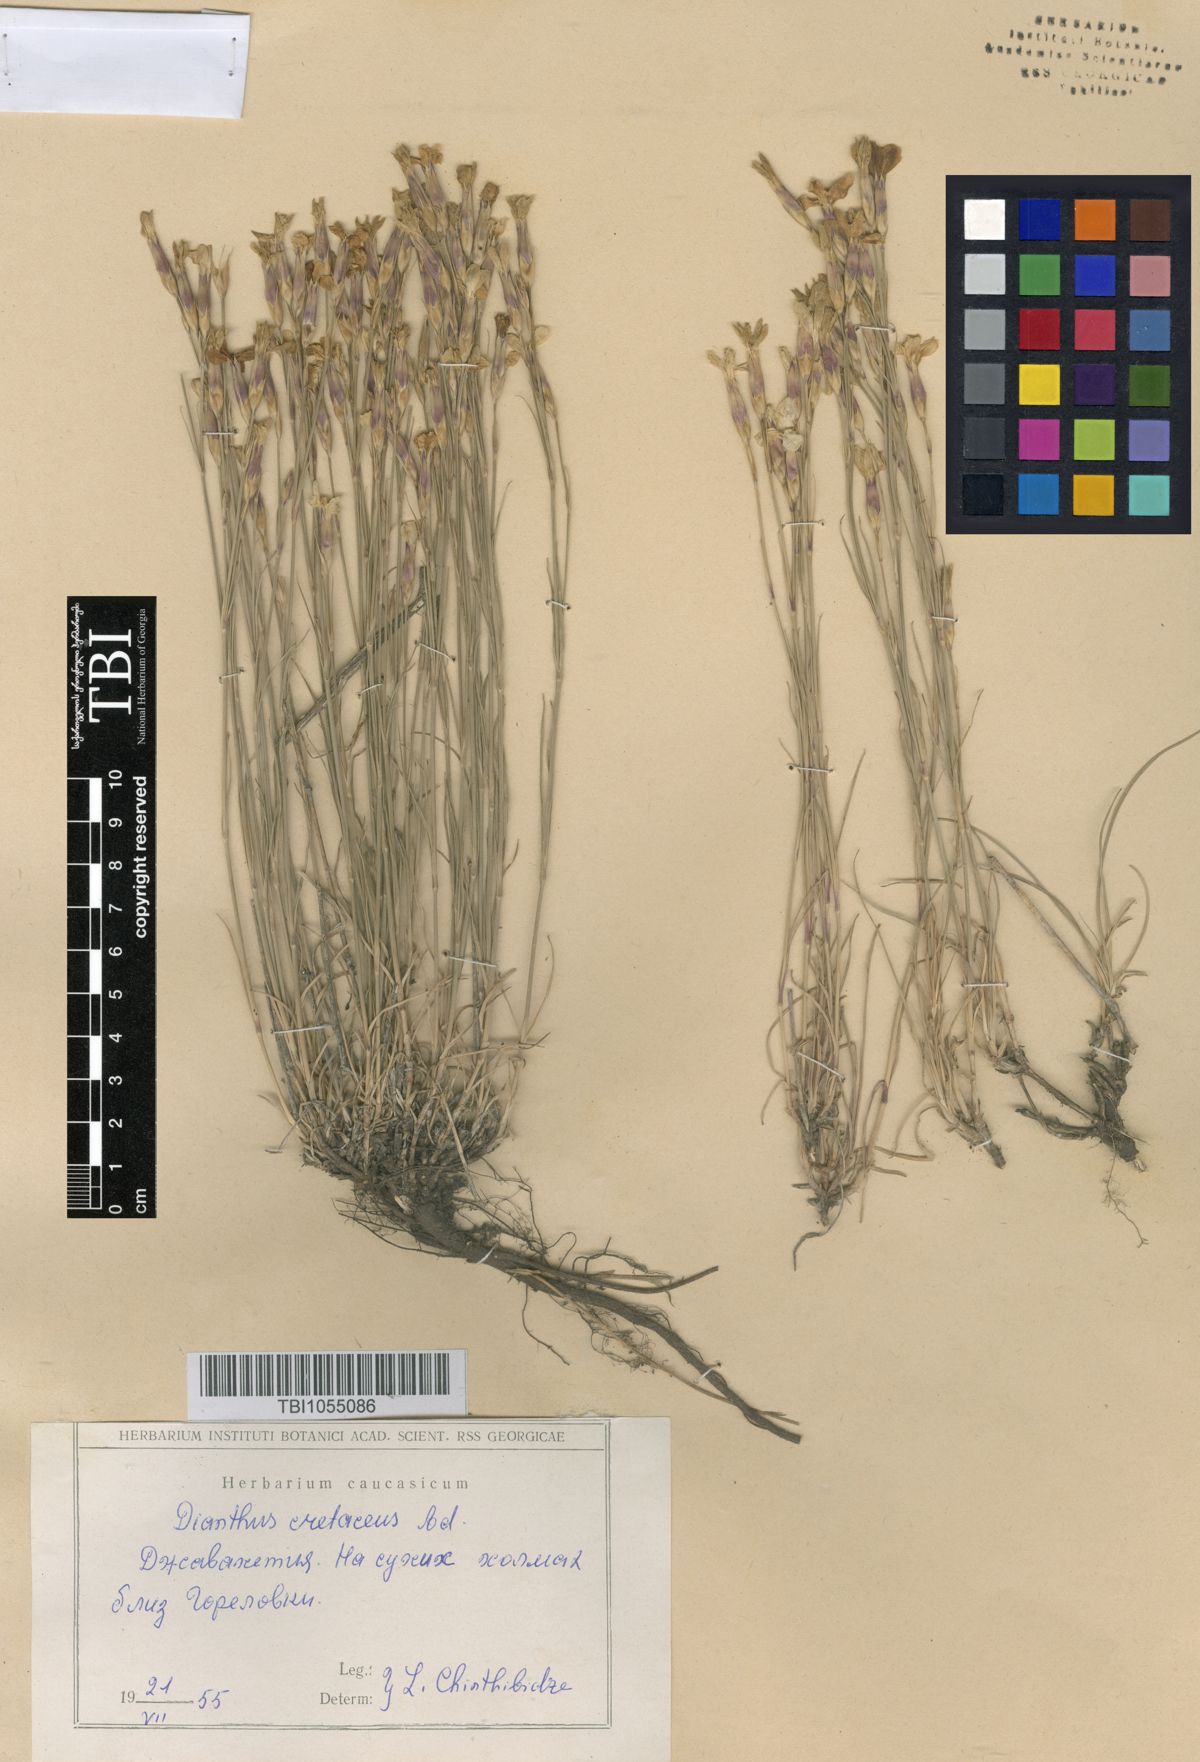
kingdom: Plantae
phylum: Tracheophyta
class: Magnoliopsida
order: Caryophyllales
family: Caryophyllaceae
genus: Dianthus
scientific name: Dianthus cretaceus
